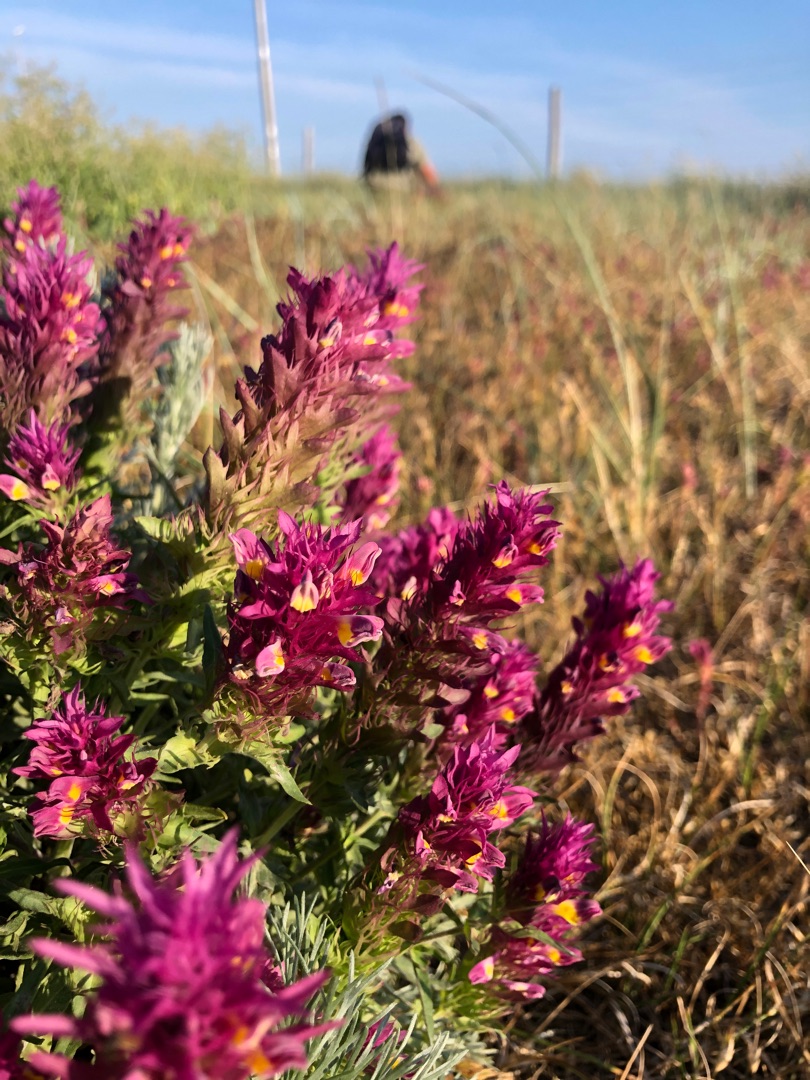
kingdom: Plantae
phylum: Tracheophyta
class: Magnoliopsida
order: Lamiales
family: Orobanchaceae
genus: Melampyrum
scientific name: Melampyrum arvense
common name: Ager-kohvede
